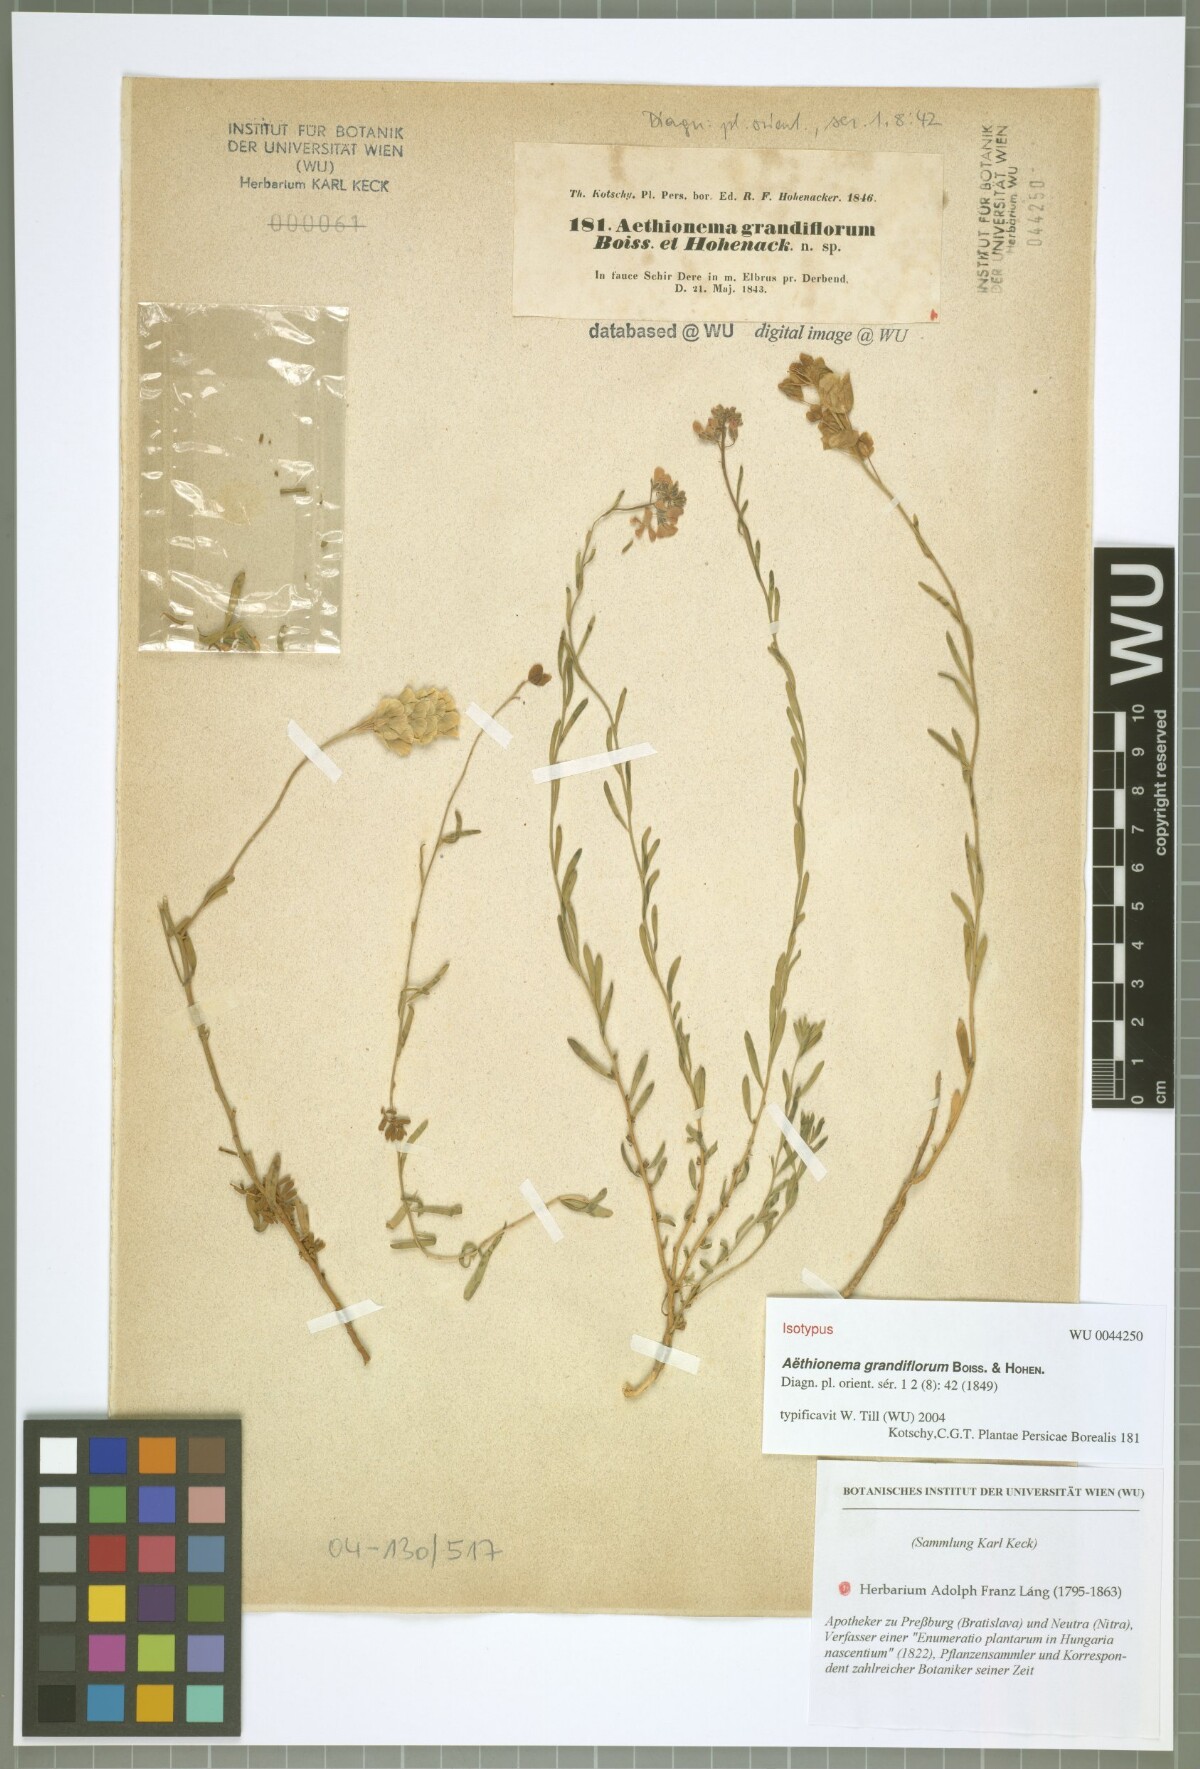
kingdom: Plantae
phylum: Tracheophyta
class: Magnoliopsida
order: Brassicales
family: Brassicaceae
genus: Aethionema
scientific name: Aethionema grandiflorum
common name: Persian stonecress
